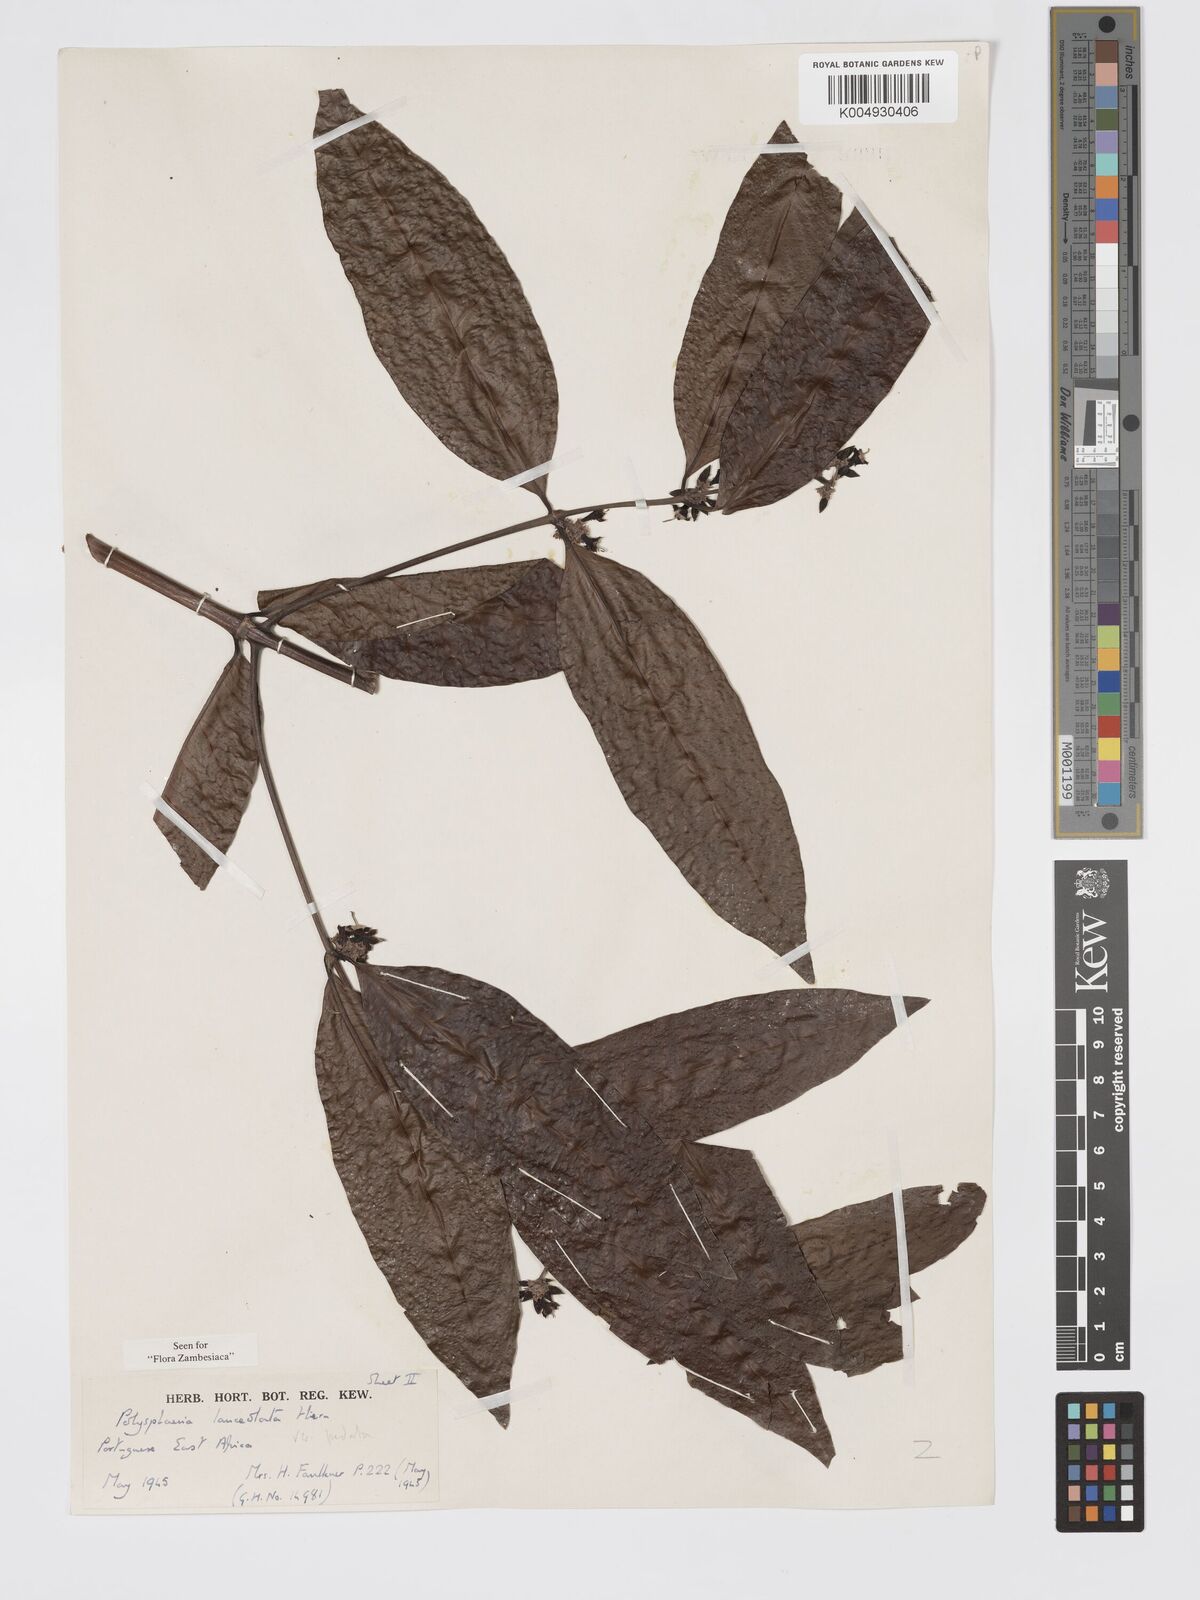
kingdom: Plantae
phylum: Tracheophyta
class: Magnoliopsida
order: Gentianales
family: Rubiaceae
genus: Polysphaeria
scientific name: Polysphaeria lanceolata
